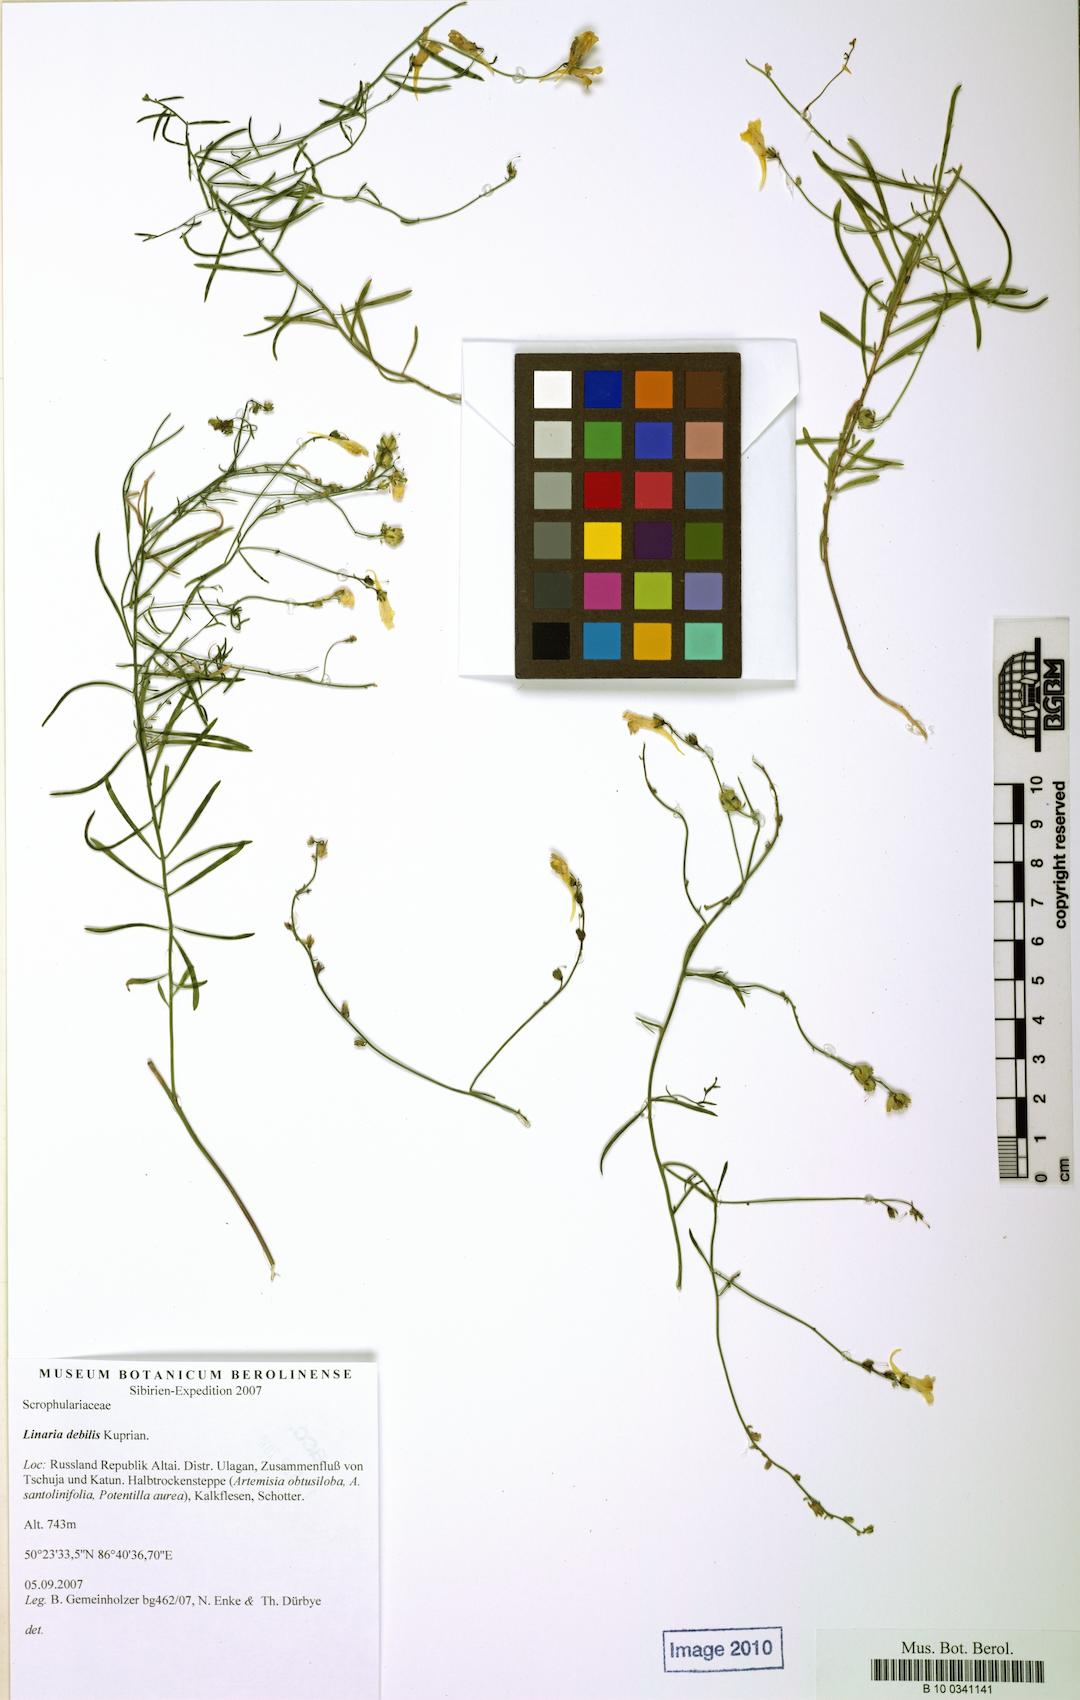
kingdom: Plantae
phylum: Tracheophyta
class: Magnoliopsida
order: Lamiales
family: Plantaginaceae
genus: Linaria
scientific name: Linaria altaica
